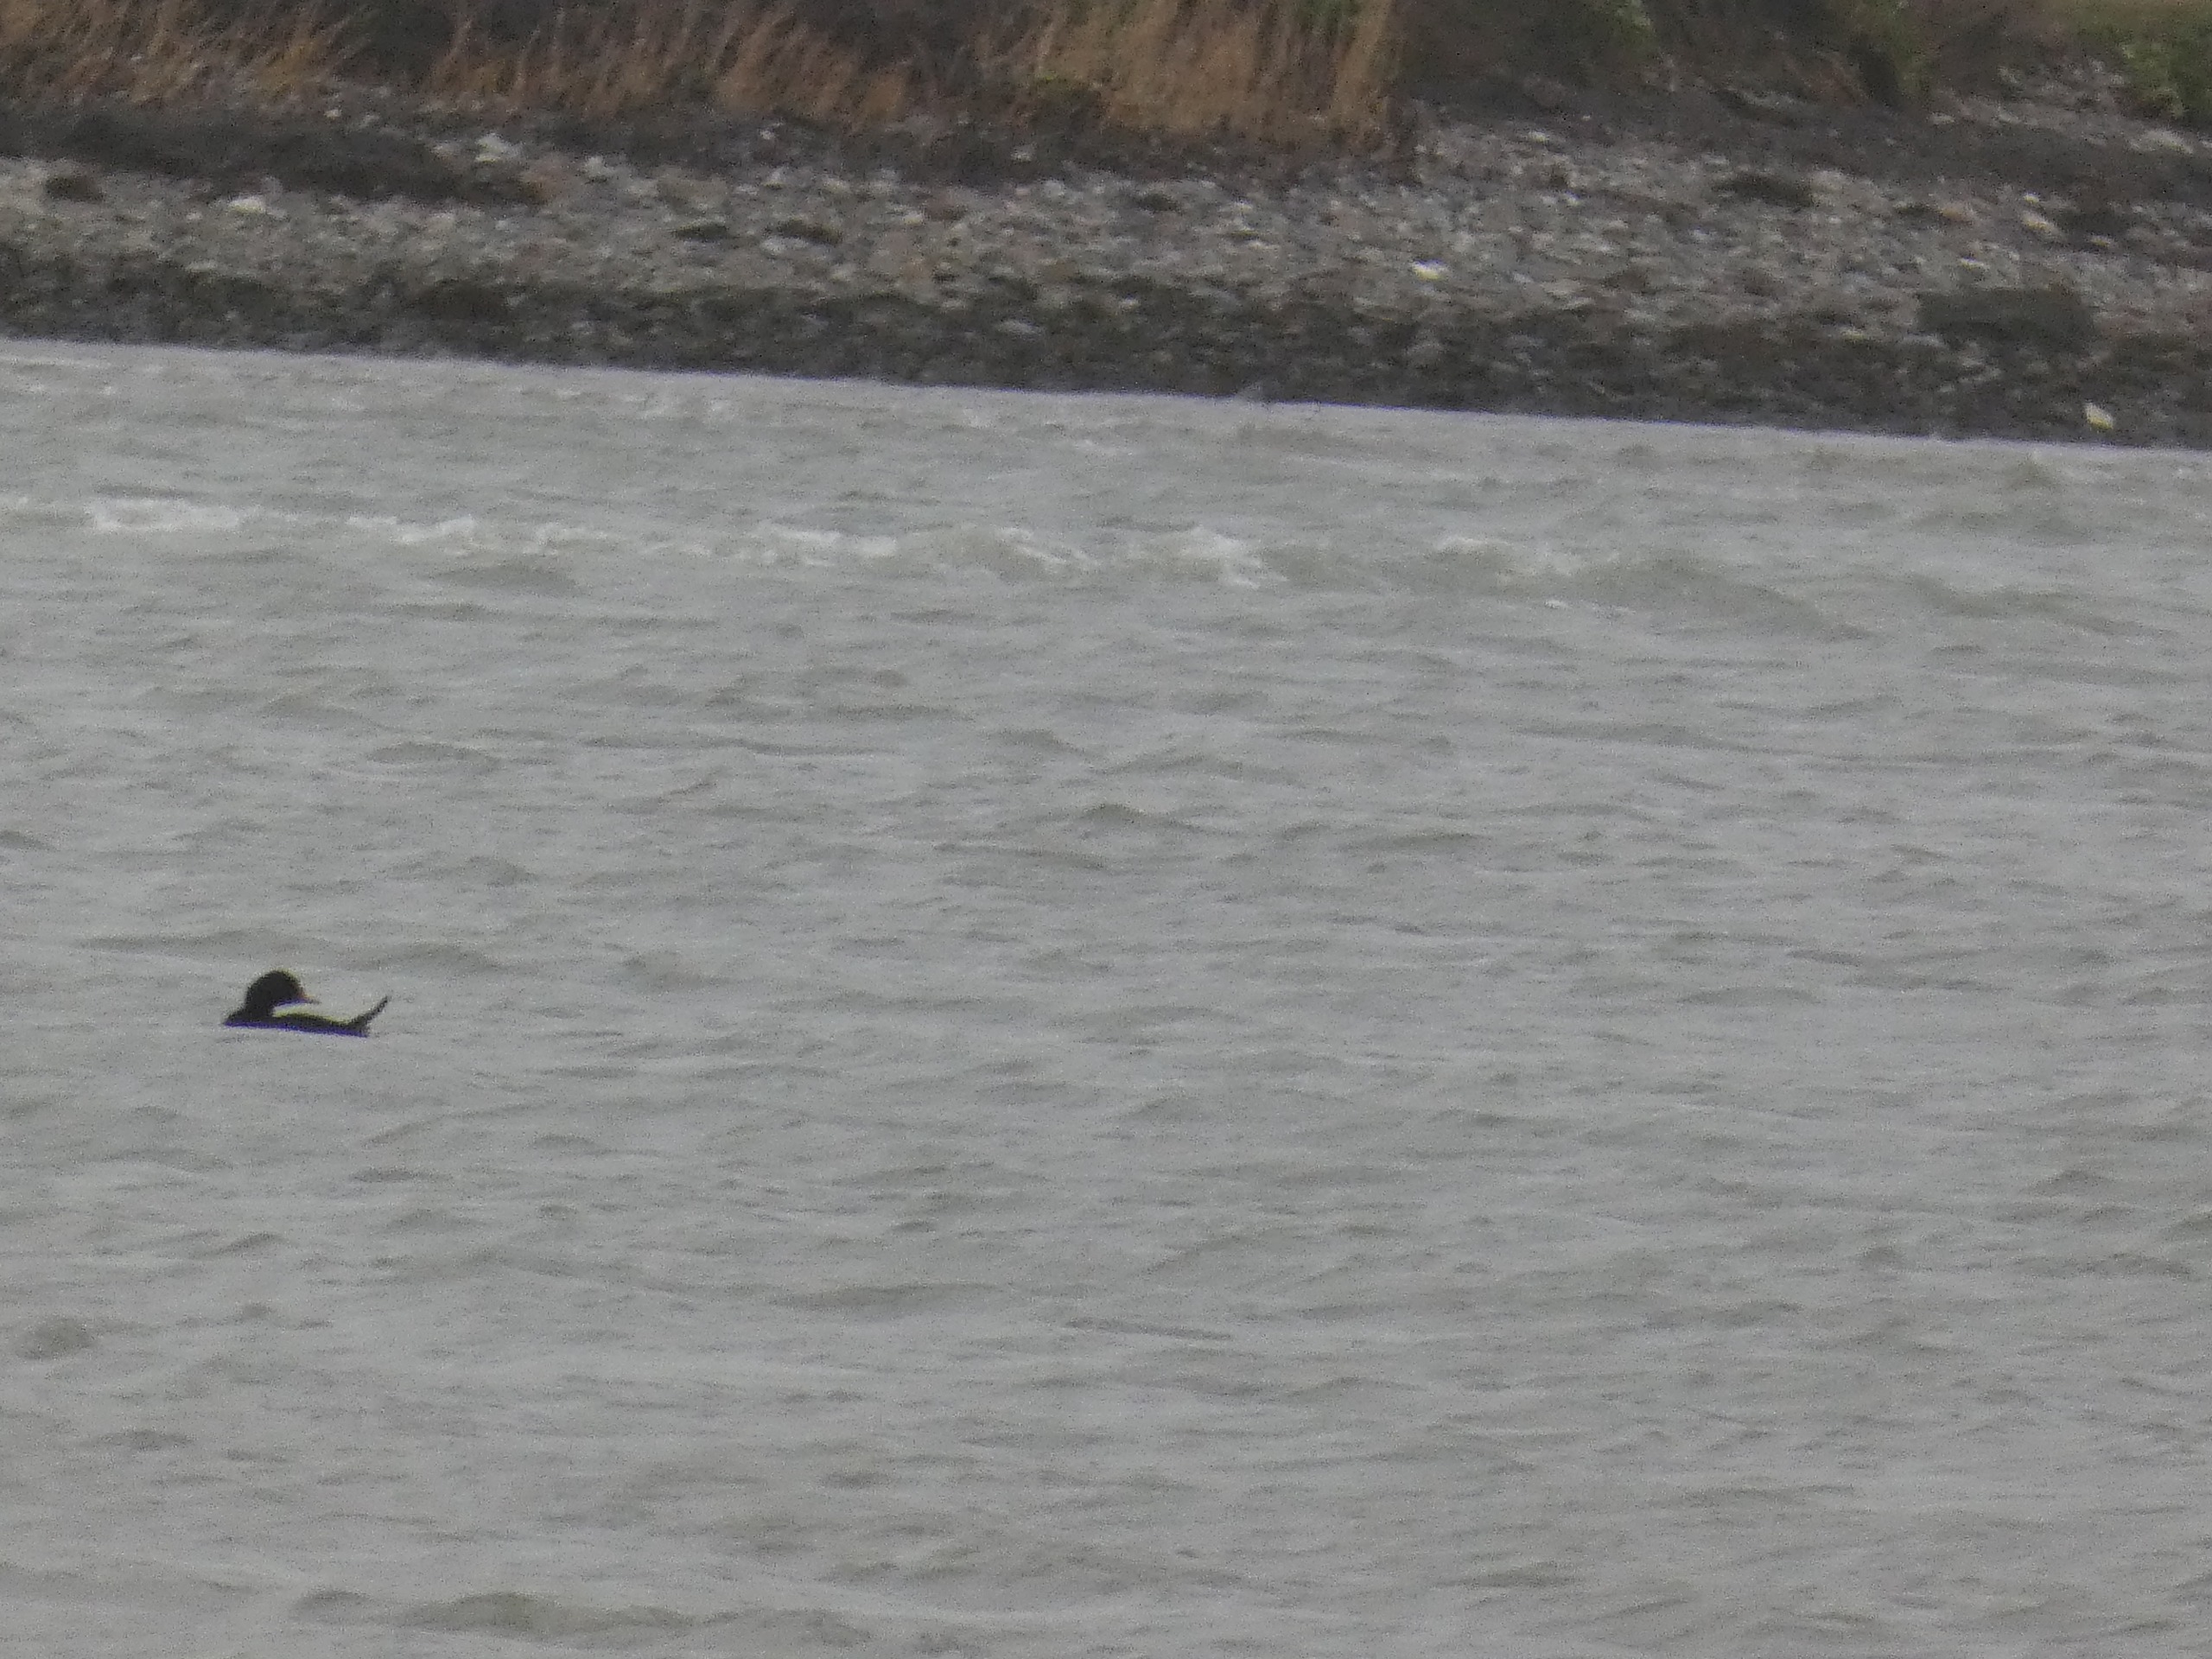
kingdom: Animalia
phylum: Chordata
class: Aves
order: Anseriformes
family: Anatidae
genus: Melanitta
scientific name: Melanitta nigra
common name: Sortand
